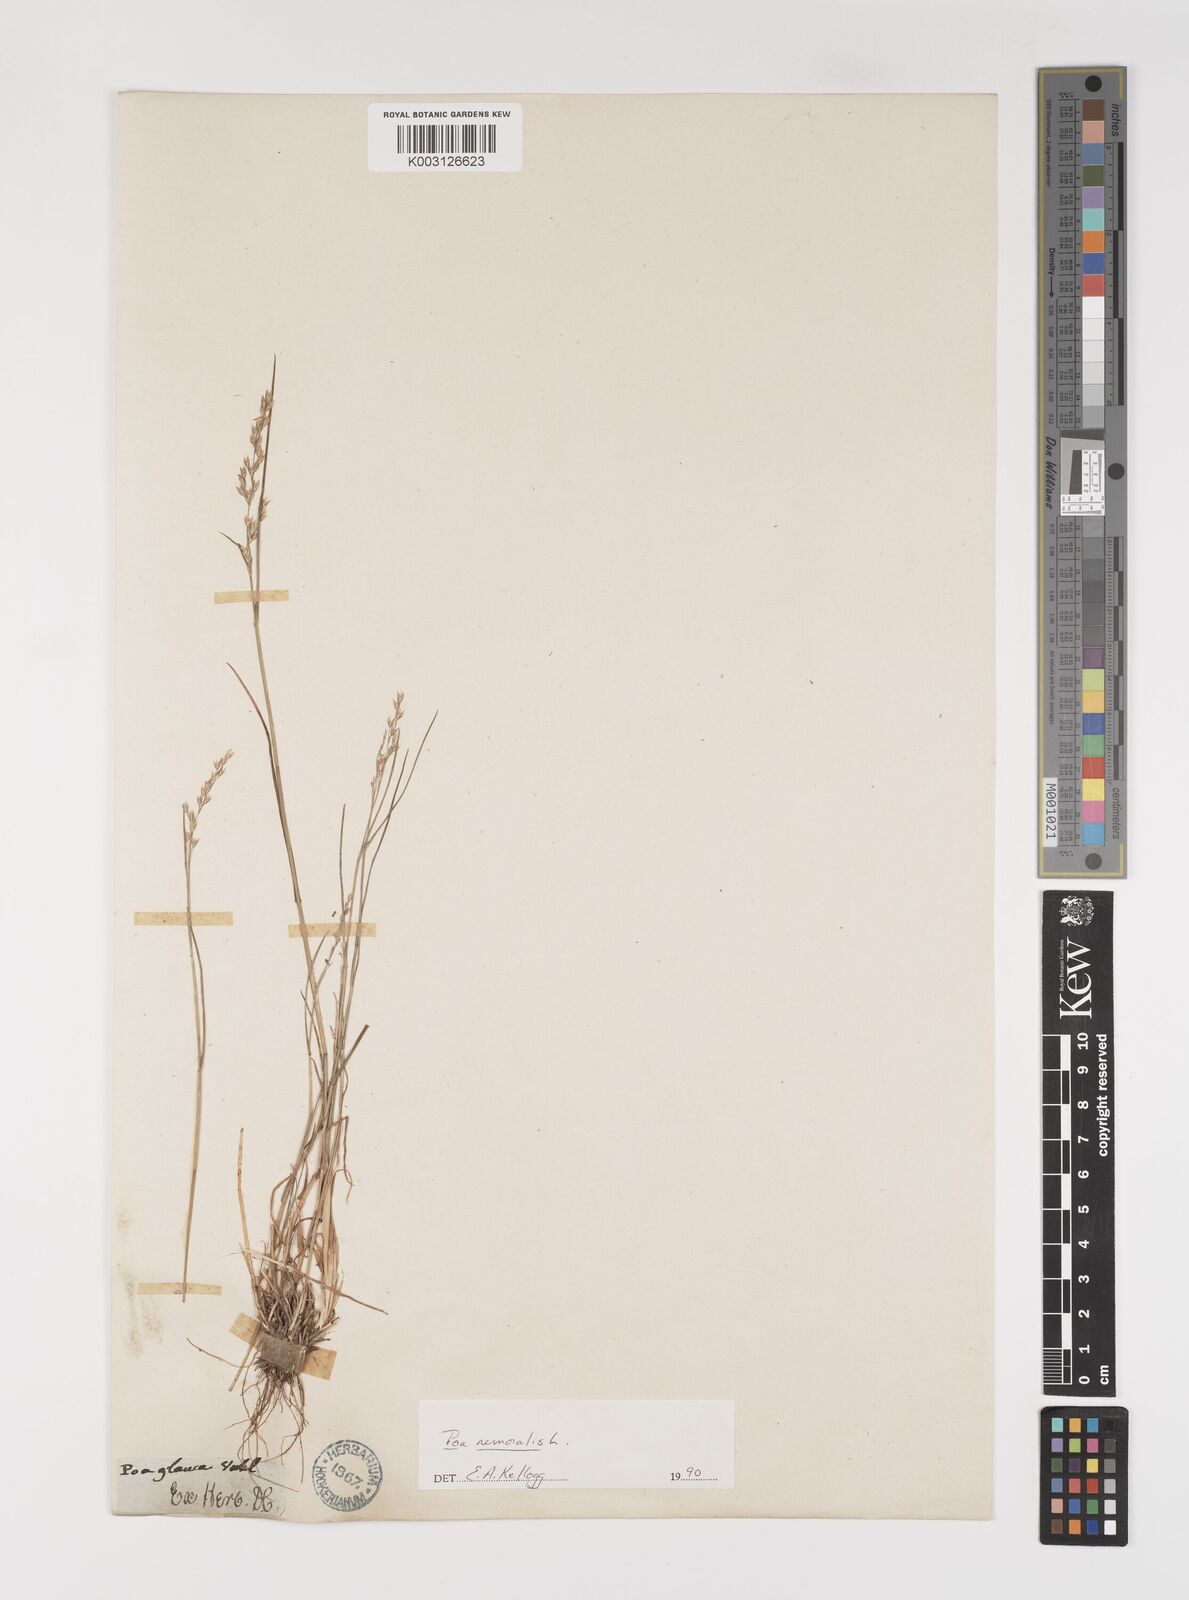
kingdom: Plantae
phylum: Tracheophyta
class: Liliopsida
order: Poales
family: Poaceae
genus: Poa
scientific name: Poa nemoralis
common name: Wood bluegrass
